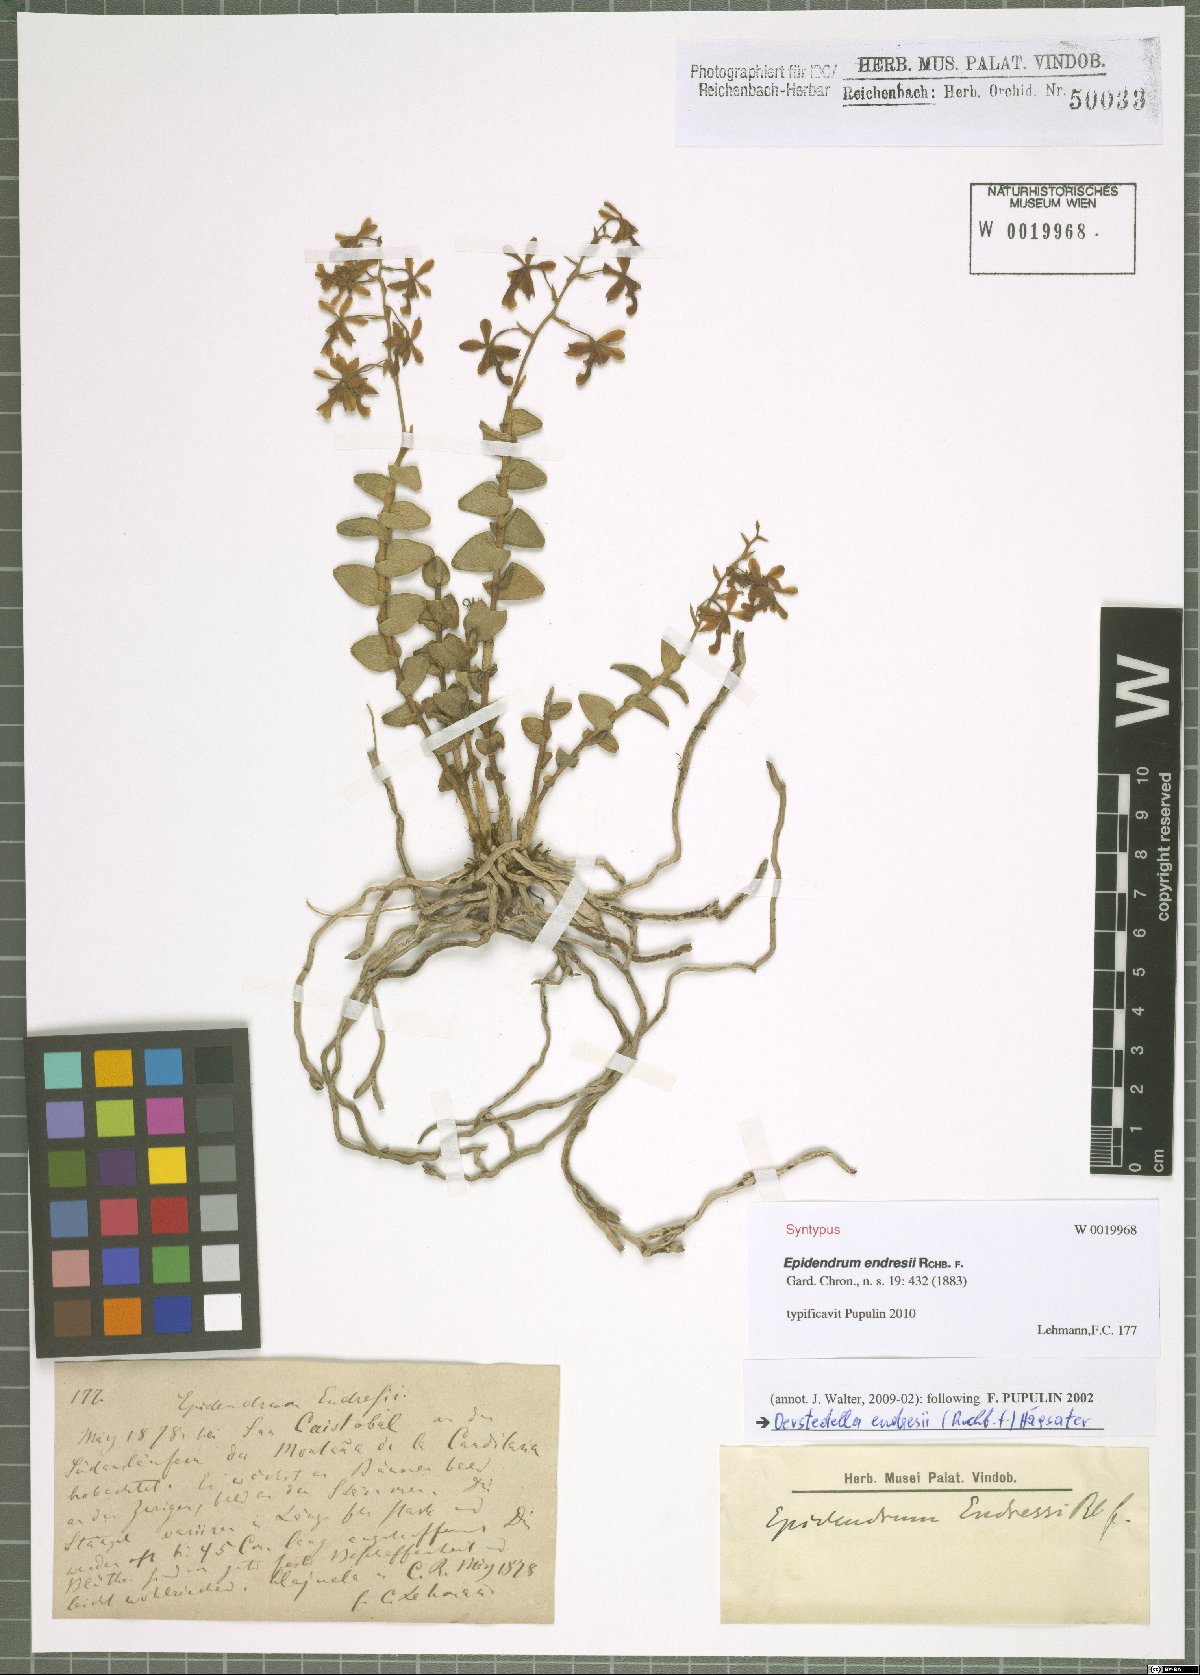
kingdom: Plantae
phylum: Tracheophyta
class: Liliopsida
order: Asparagales
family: Orchidaceae
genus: Epidendrum
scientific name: Epidendrum endresii
